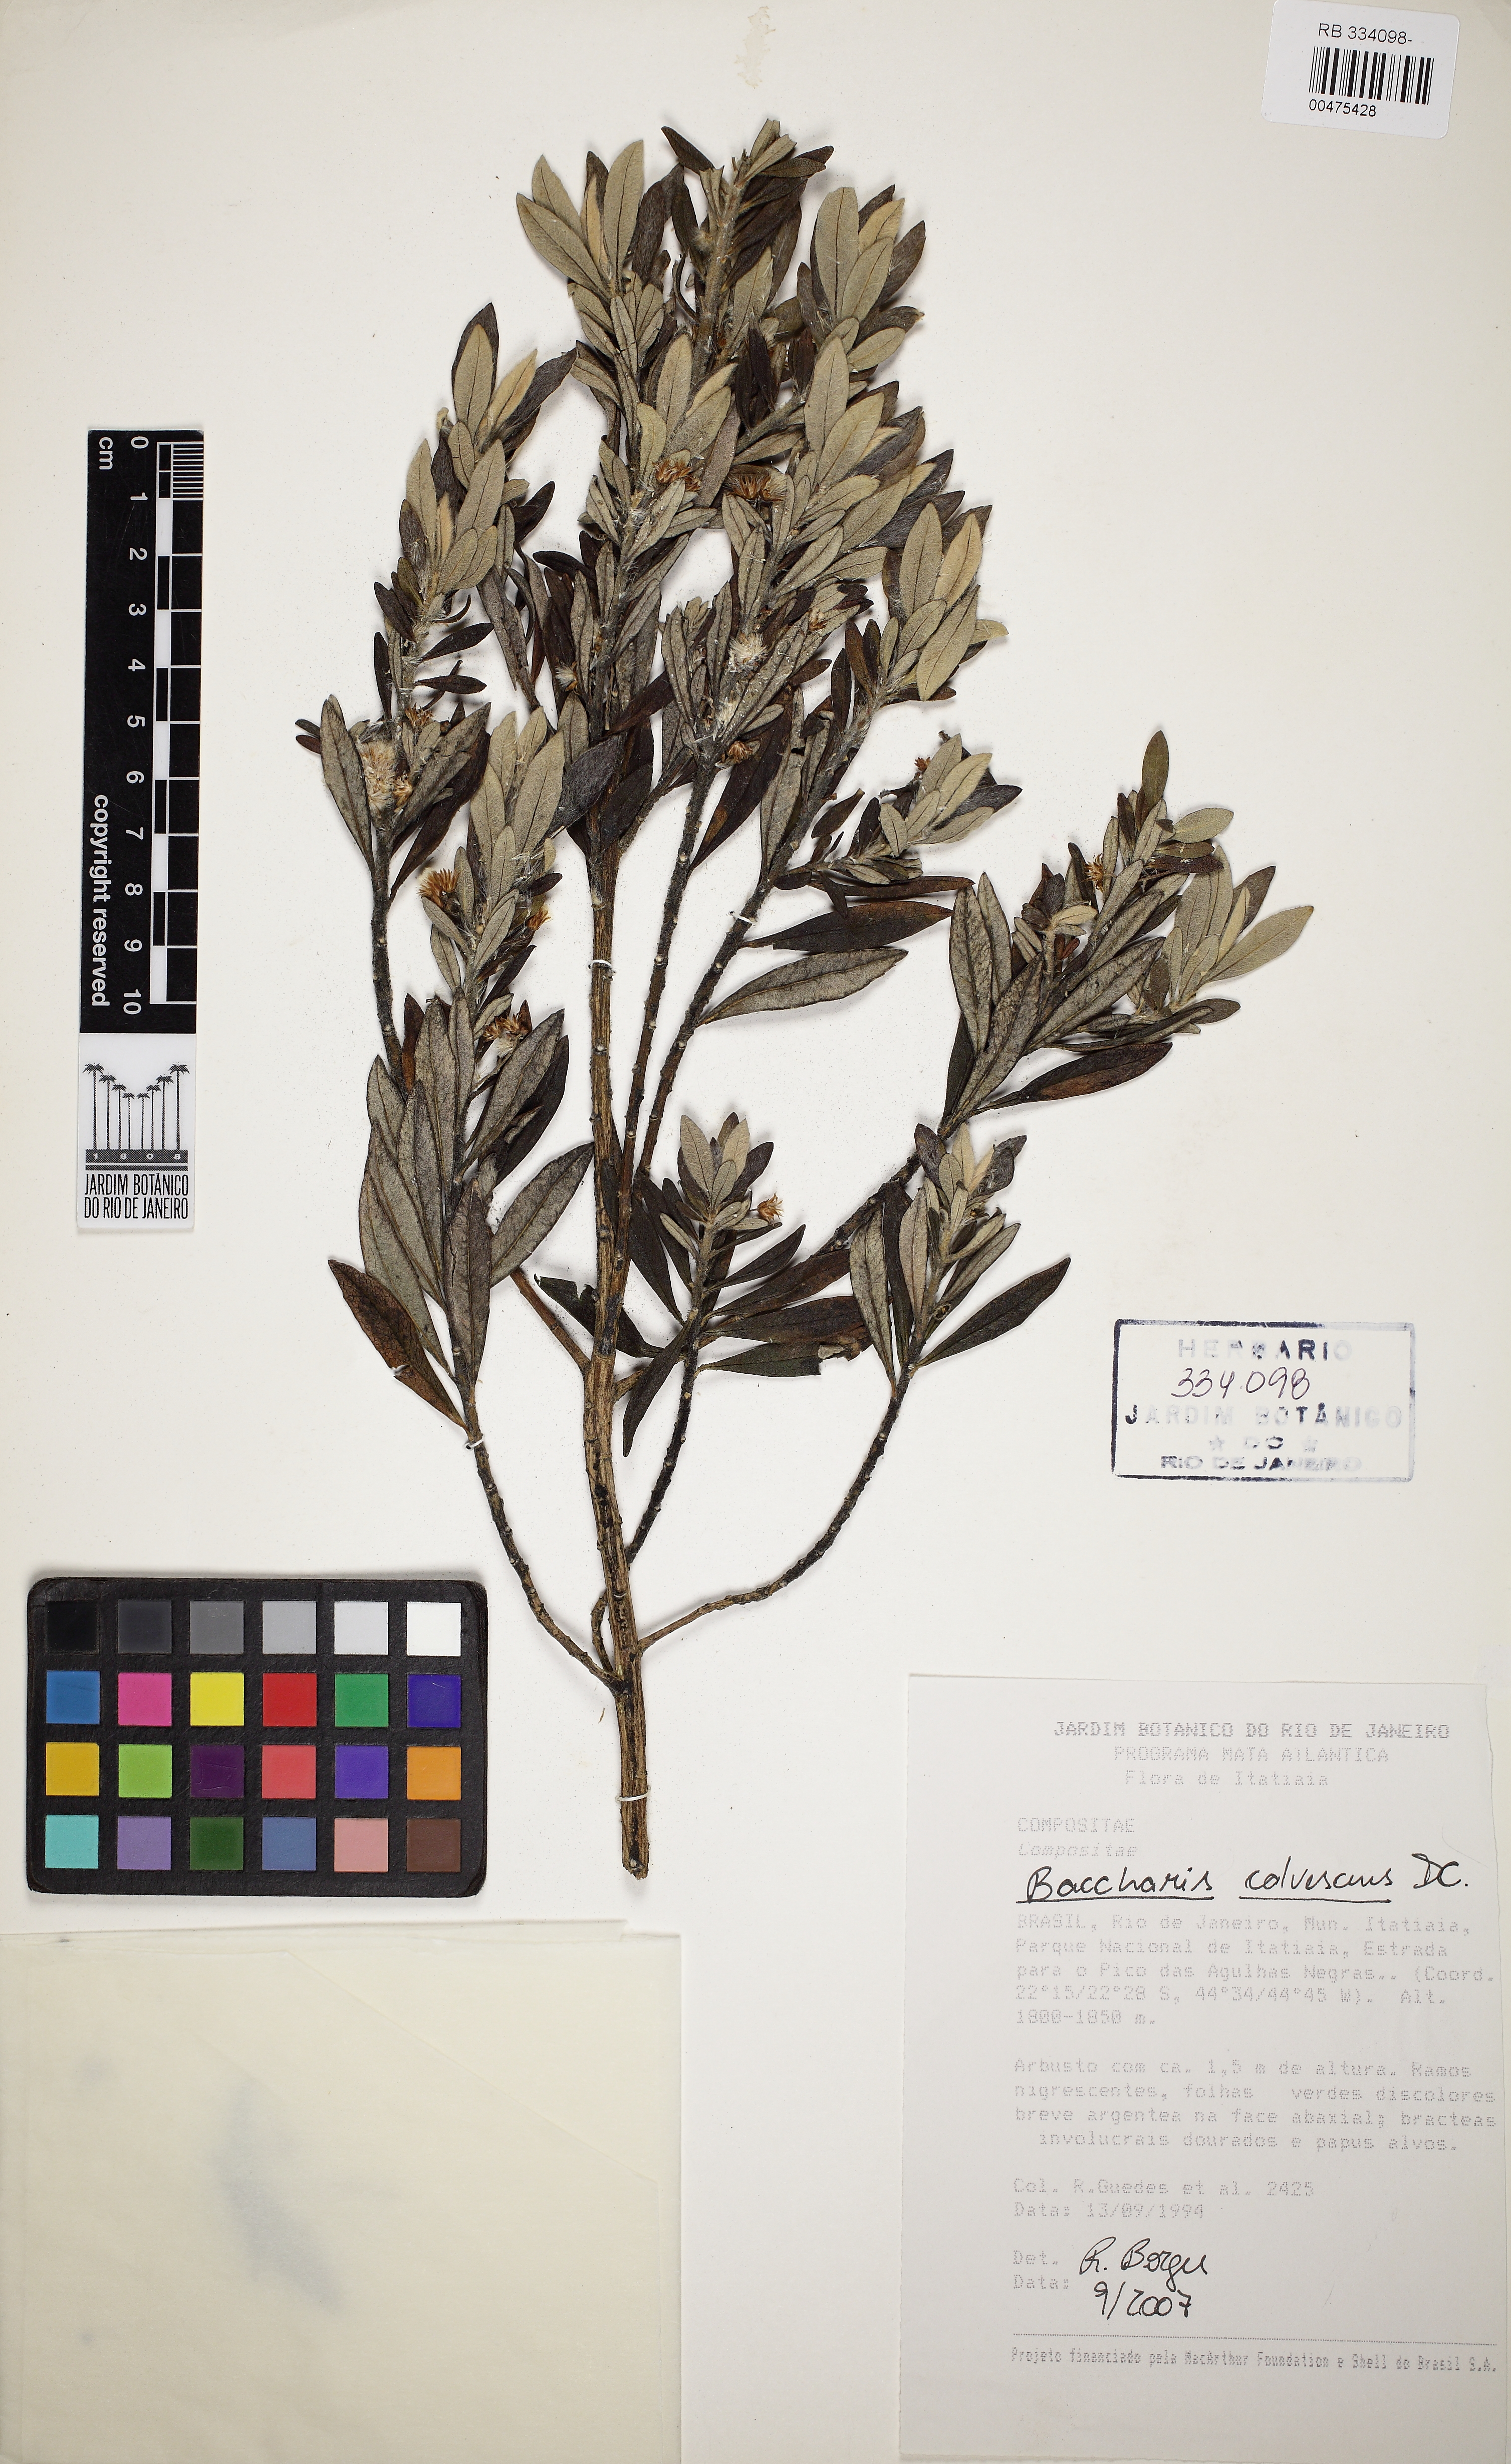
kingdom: Plantae
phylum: Tracheophyta
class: Magnoliopsida
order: Asterales
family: Asteraceae
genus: Baccharis
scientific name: Baccharis calvescens
